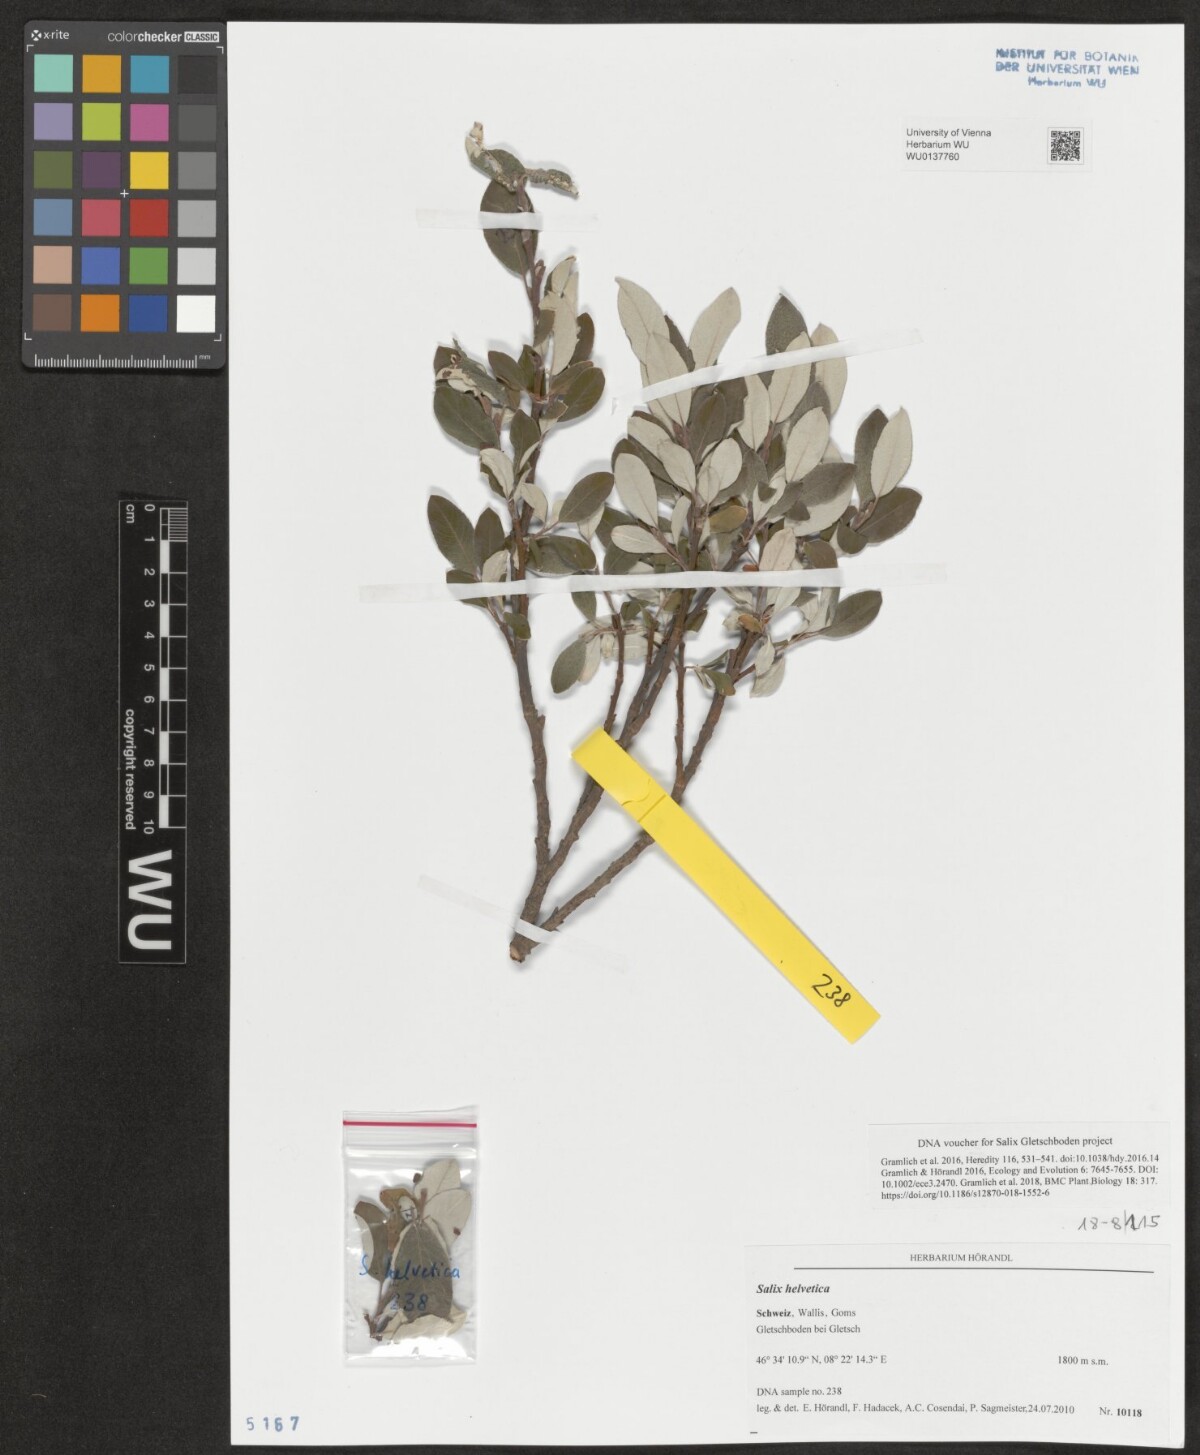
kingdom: Plantae
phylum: Tracheophyta
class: Magnoliopsida
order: Malpighiales
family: Salicaceae
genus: Salix
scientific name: Salix helvetica
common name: Swiss willow
